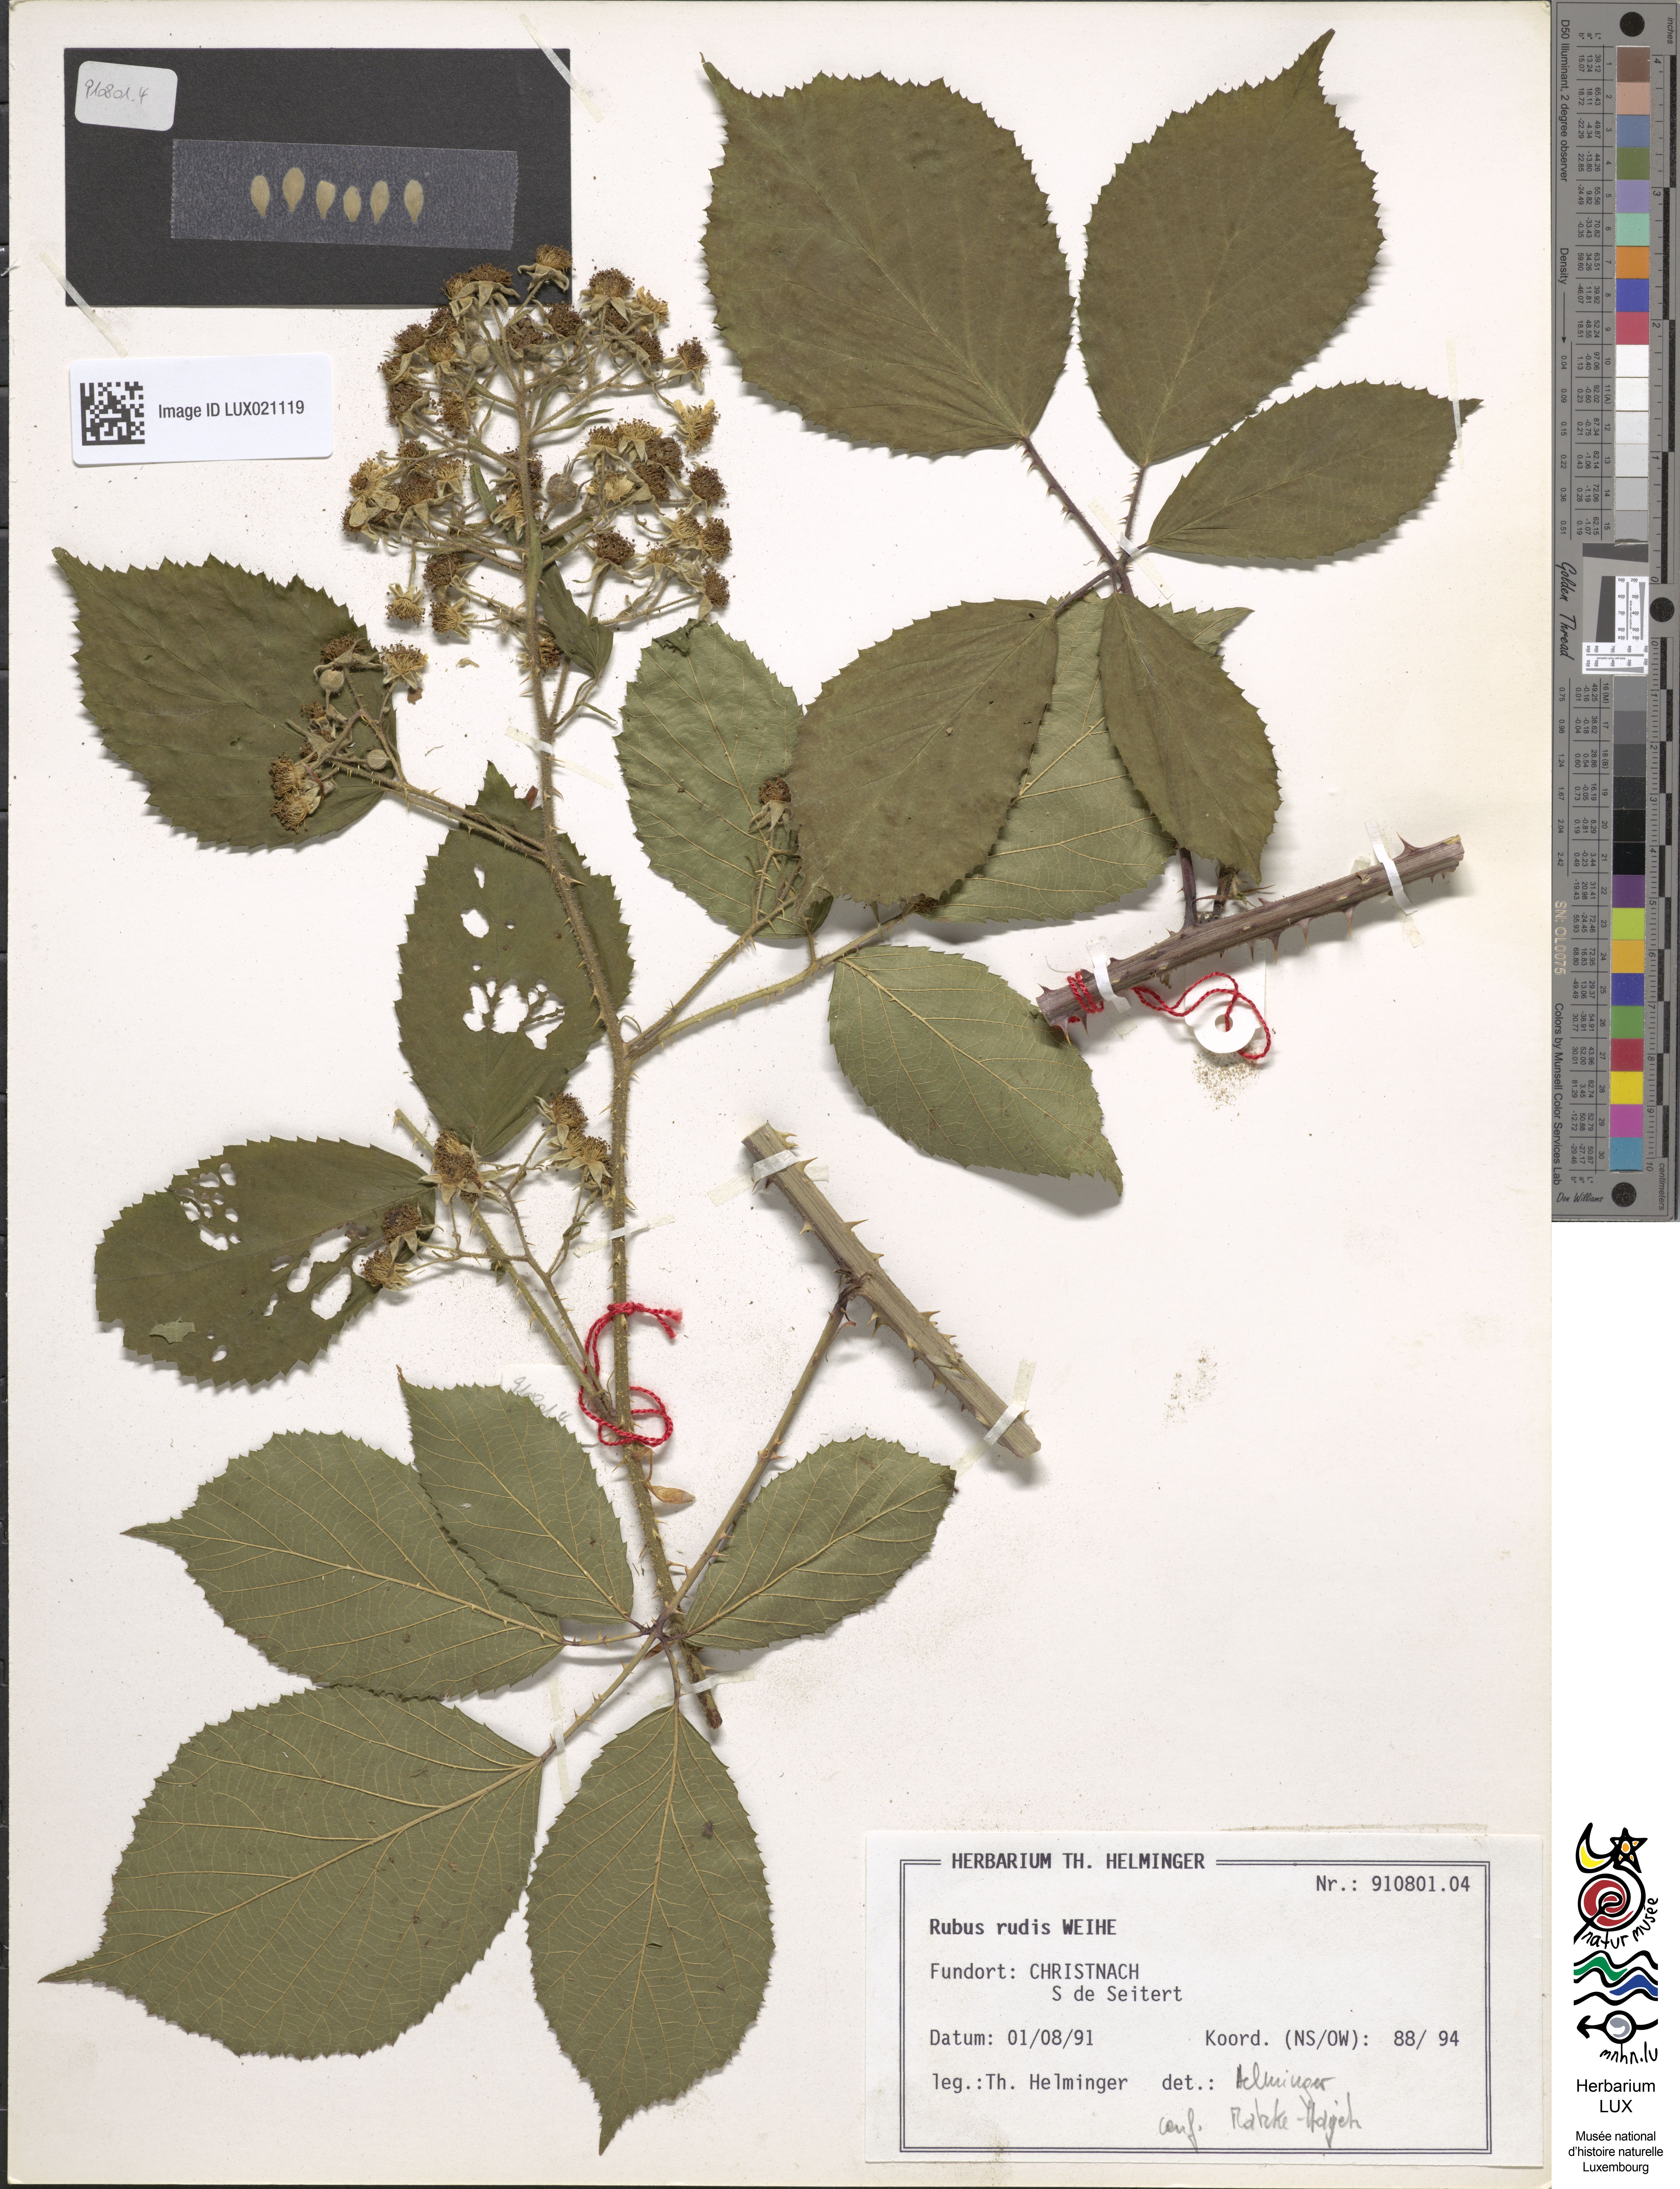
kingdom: Plantae
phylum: Tracheophyta
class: Magnoliopsida
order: Rosales
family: Rosaceae
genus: Rubus
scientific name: Rubus rudis
